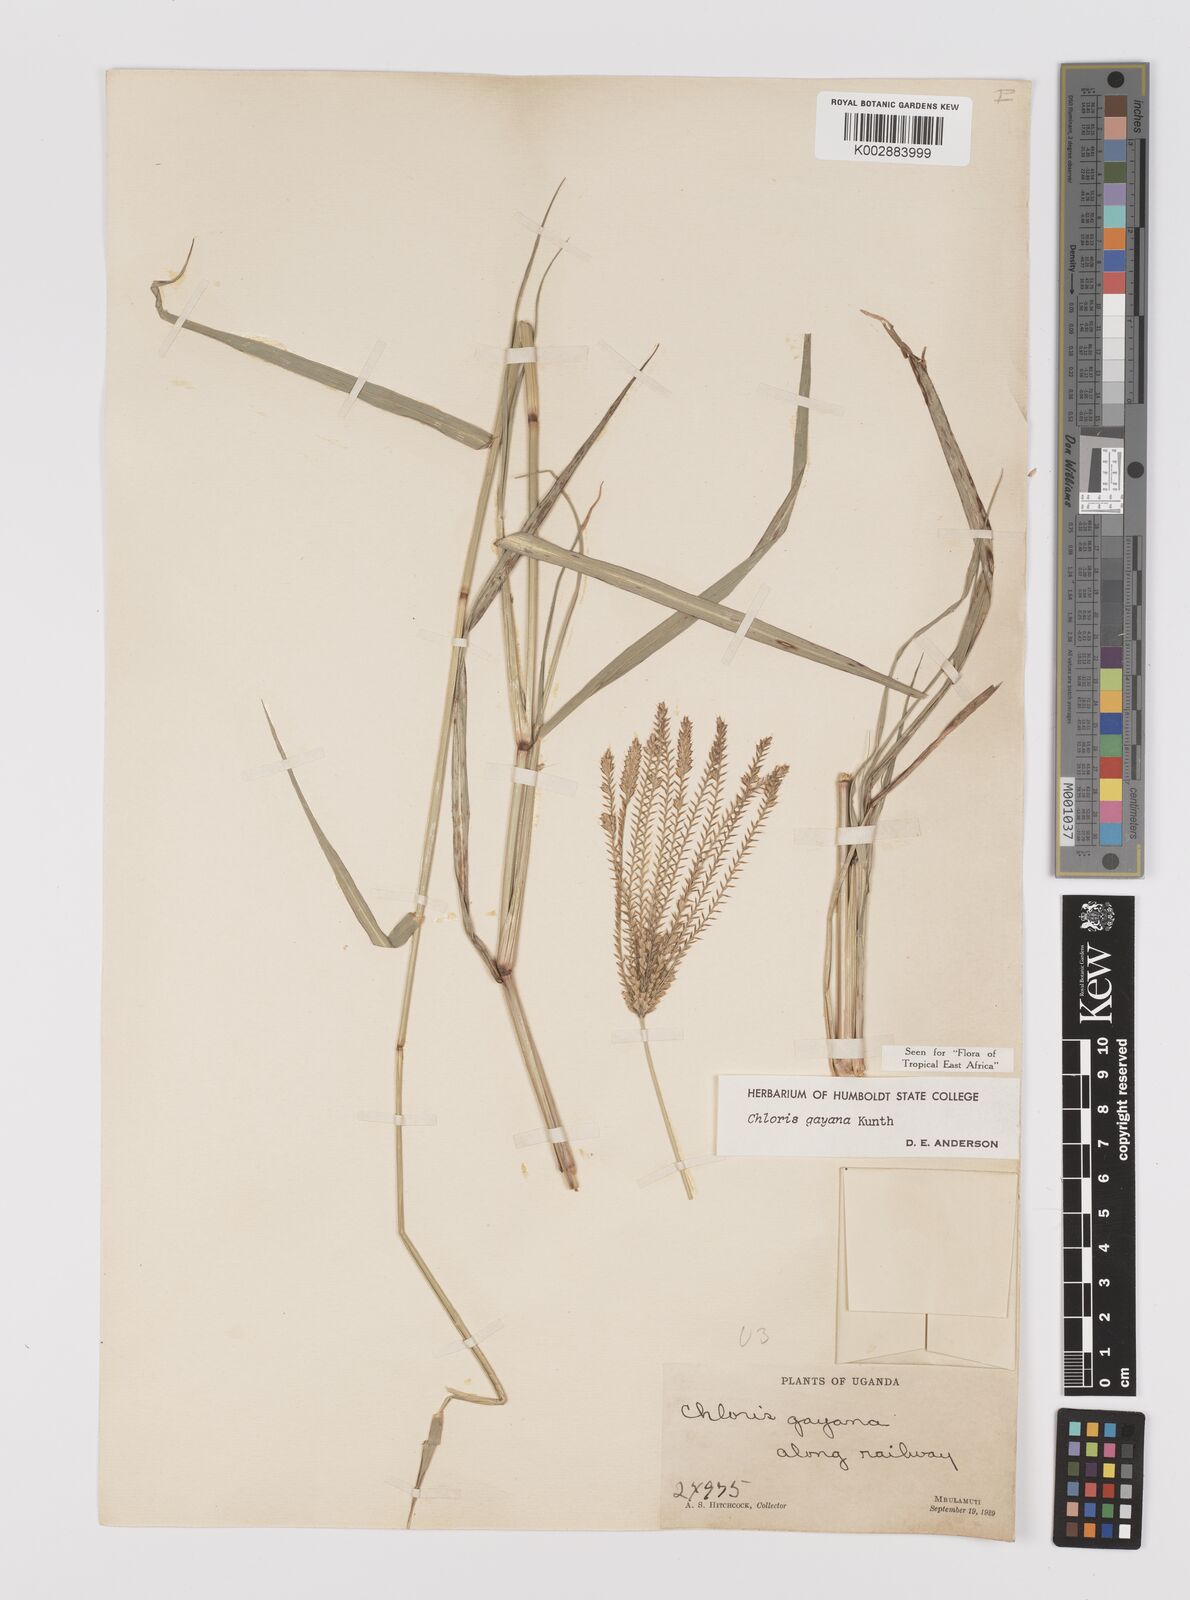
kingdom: Plantae
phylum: Tracheophyta
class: Liliopsida
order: Poales
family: Poaceae
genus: Chloris
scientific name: Chloris gayana
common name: Rhodes grass
